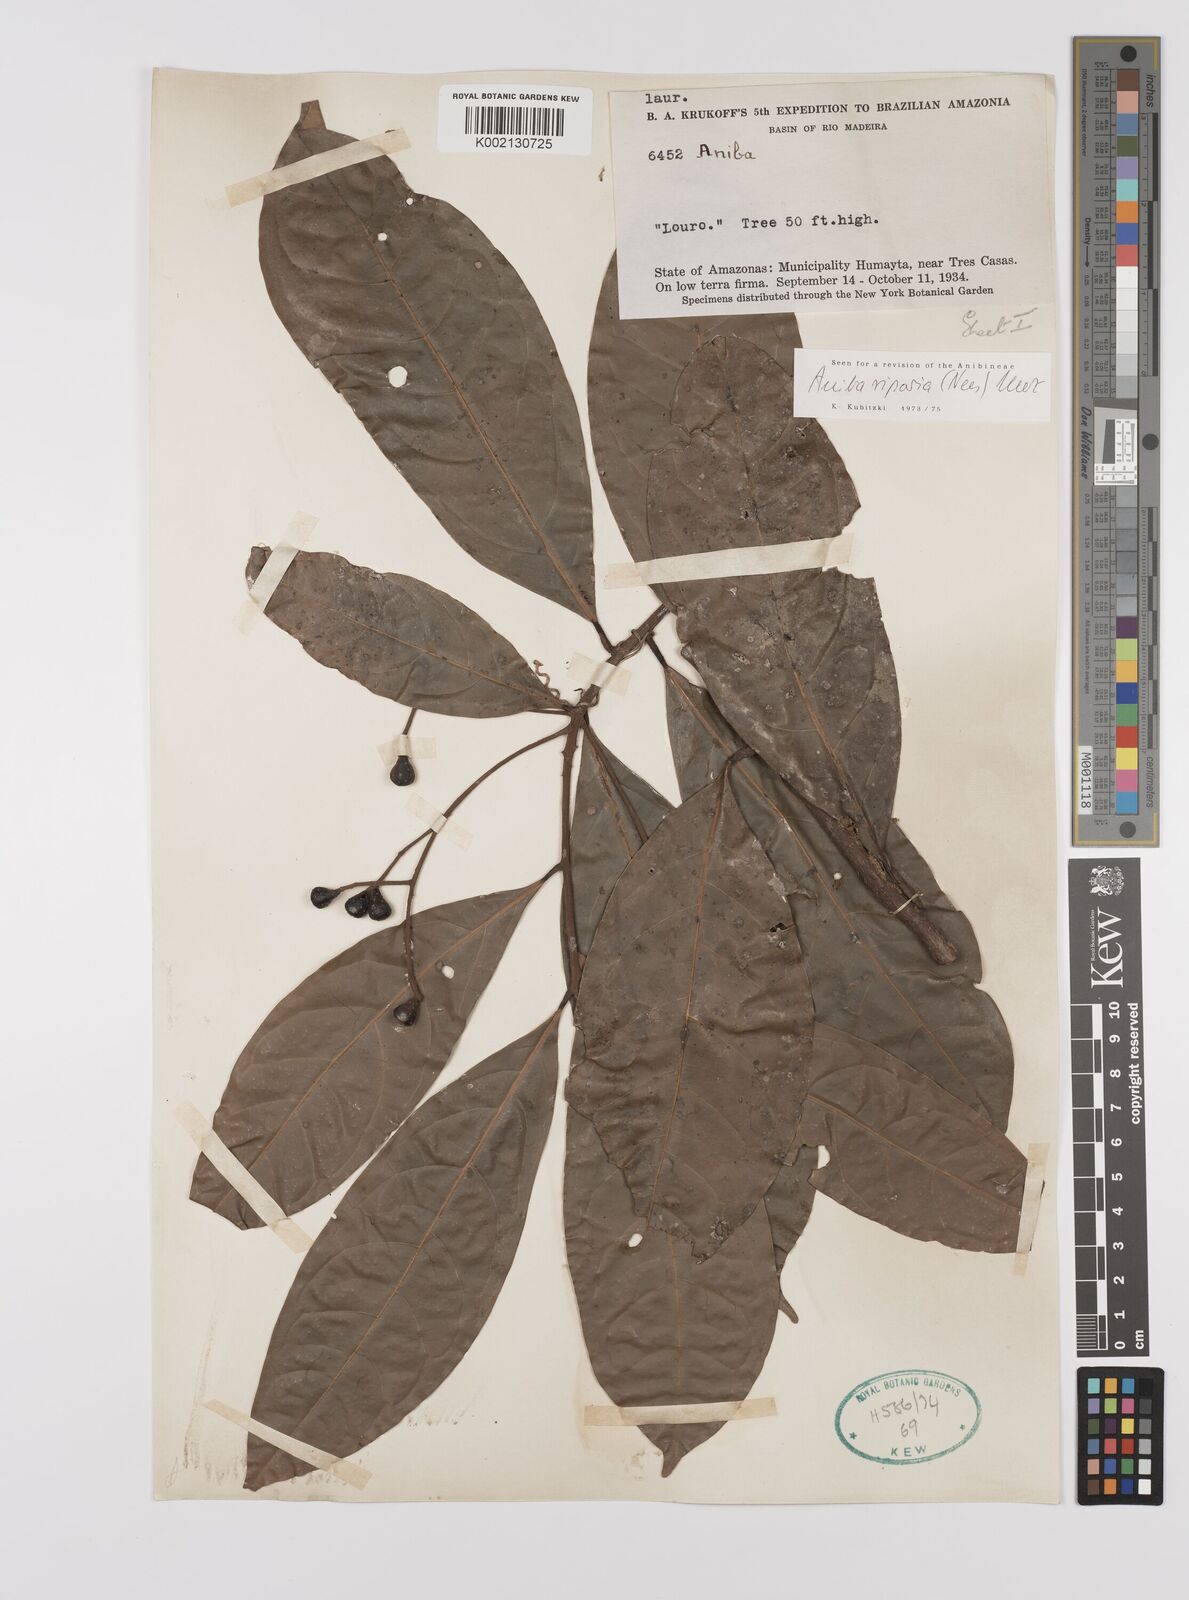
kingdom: Plantae
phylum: Tracheophyta
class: Magnoliopsida
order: Laurales
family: Lauraceae
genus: Aniba
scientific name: Aniba riparia
